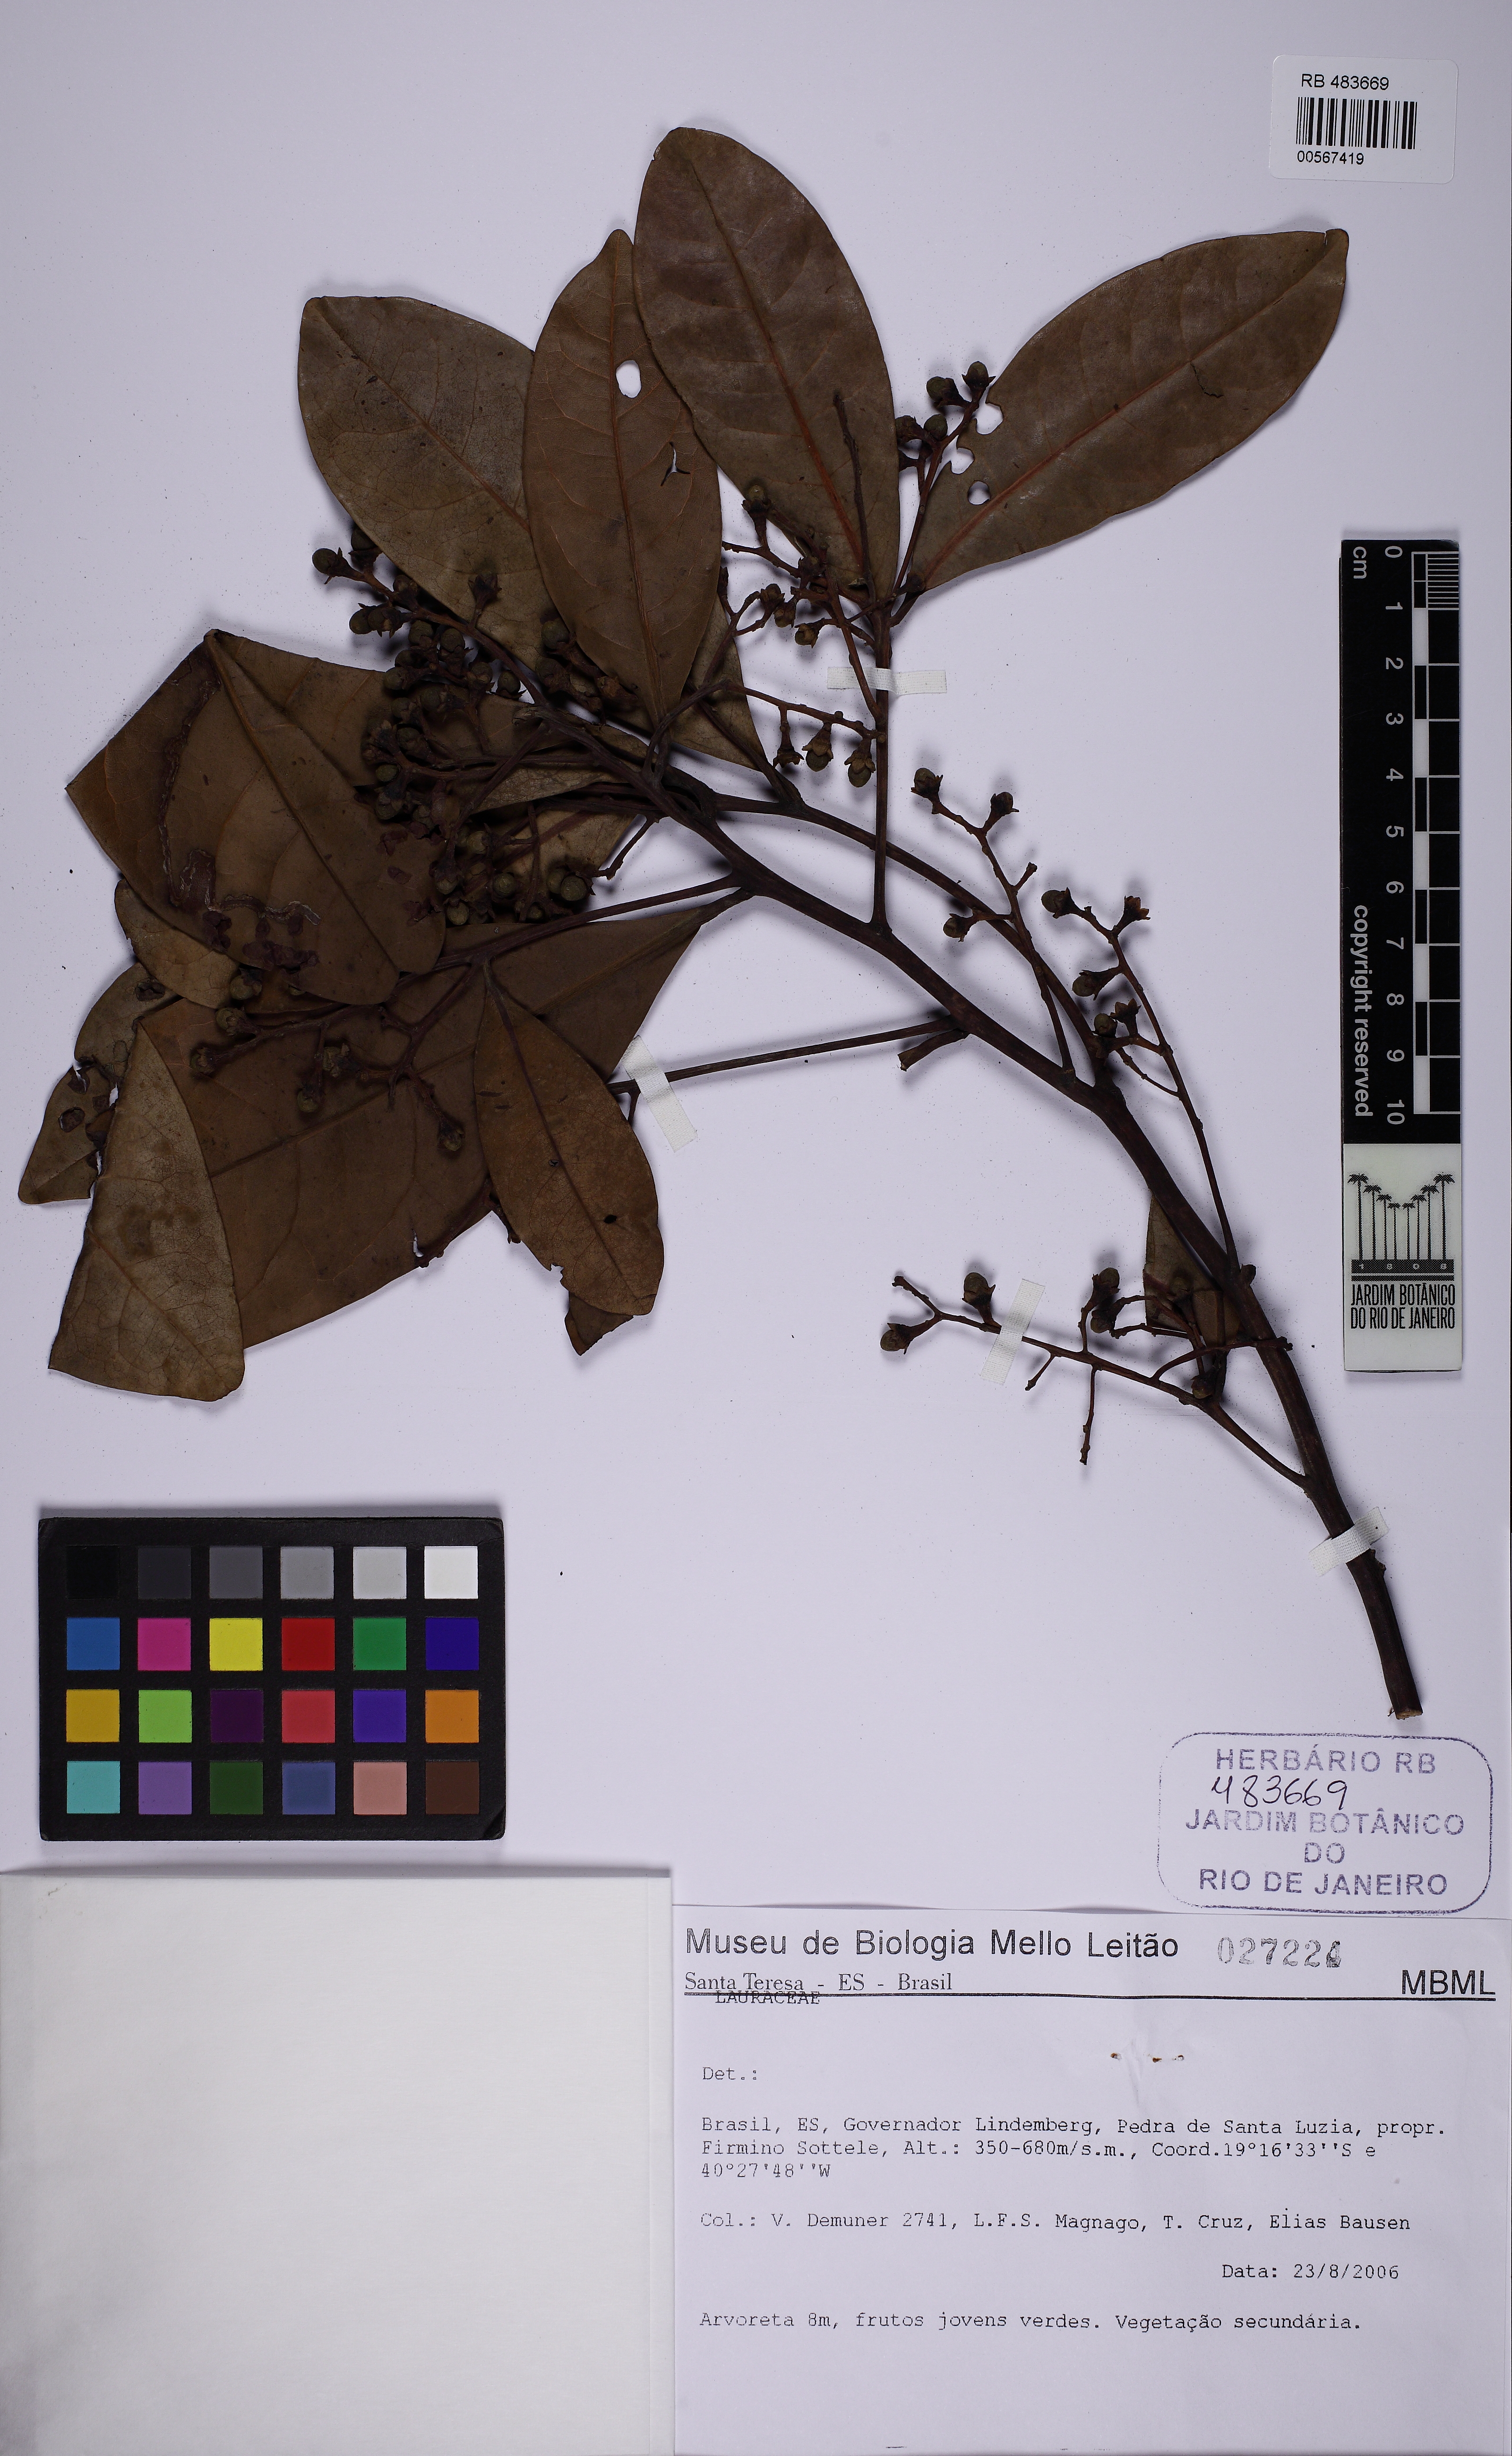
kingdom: Plantae
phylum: Tracheophyta
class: Magnoliopsida
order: Laurales
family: Lauraceae
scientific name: Lauraceae
